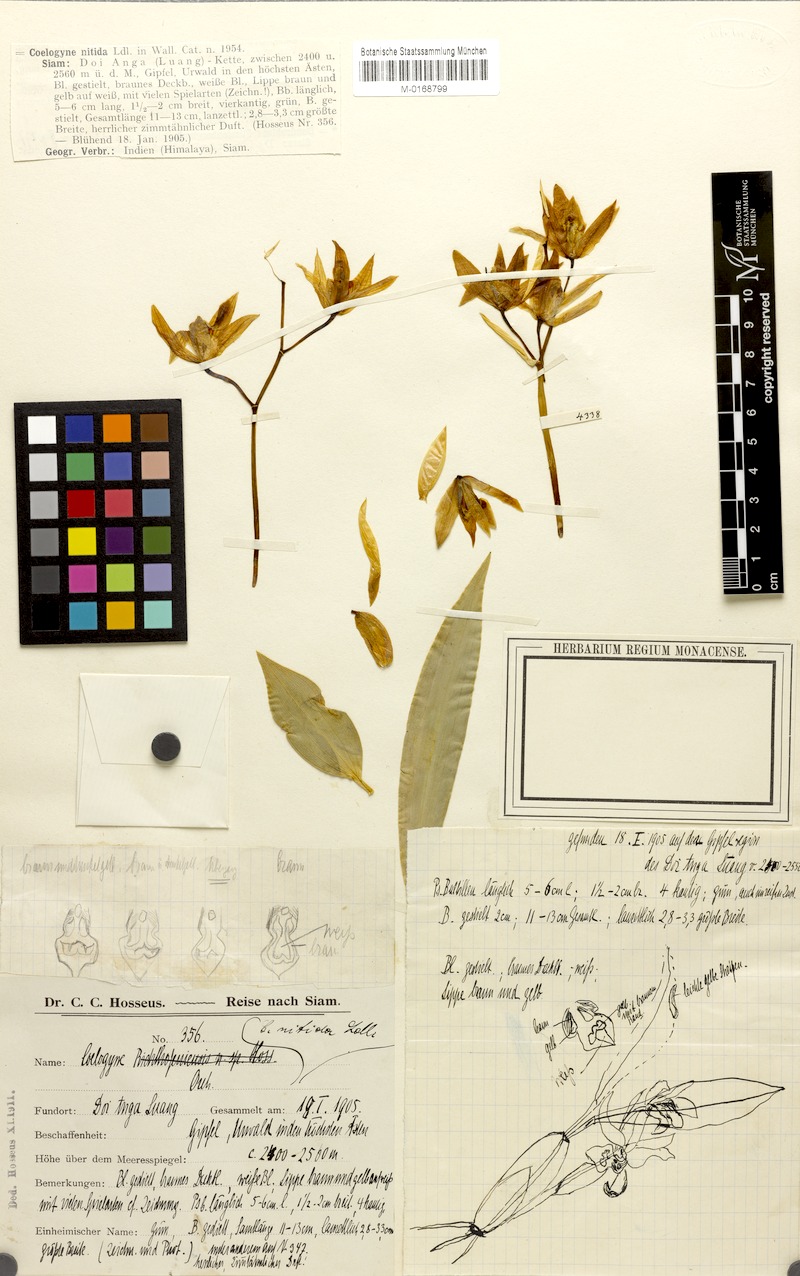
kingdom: Plantae
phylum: Tracheophyta
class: Liliopsida
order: Asparagales
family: Orchidaceae
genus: Coelogyne
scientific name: Coelogyne nitida
